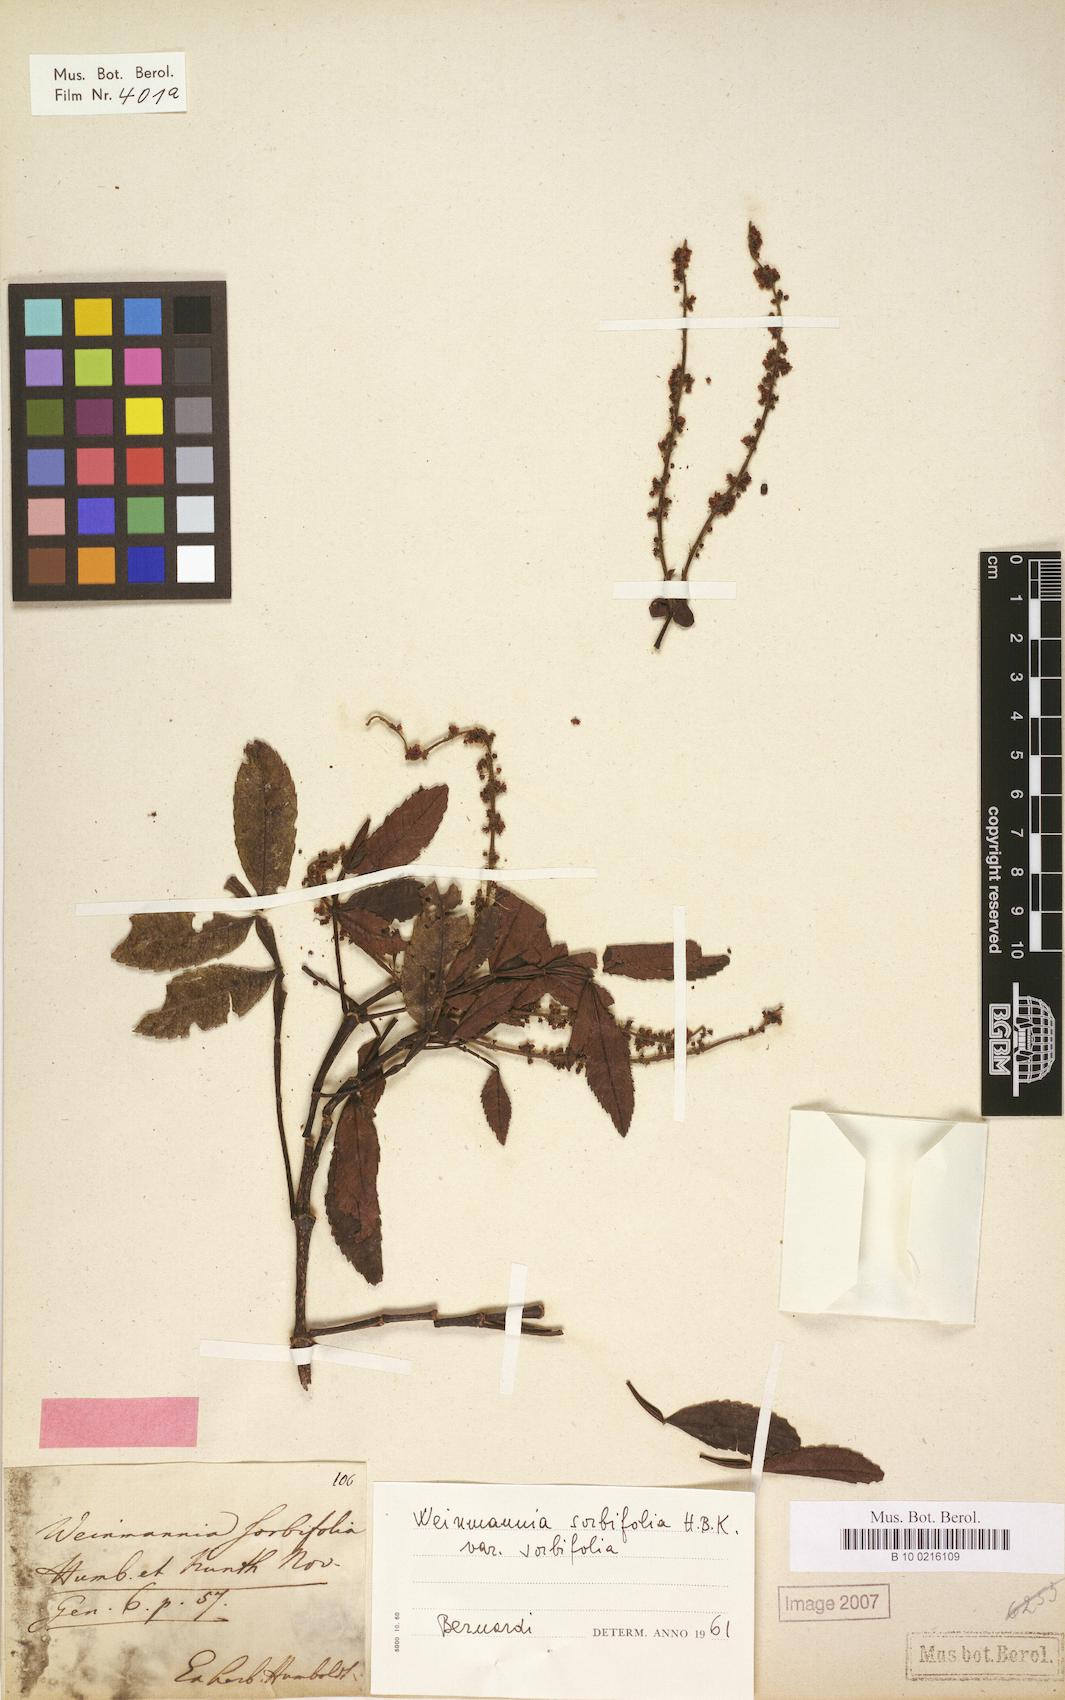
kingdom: Plantae
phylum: Tracheophyta
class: Magnoliopsida
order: Oxalidales
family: Cunoniaceae
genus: Weinmannia
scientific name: Weinmannia sorbifolia
